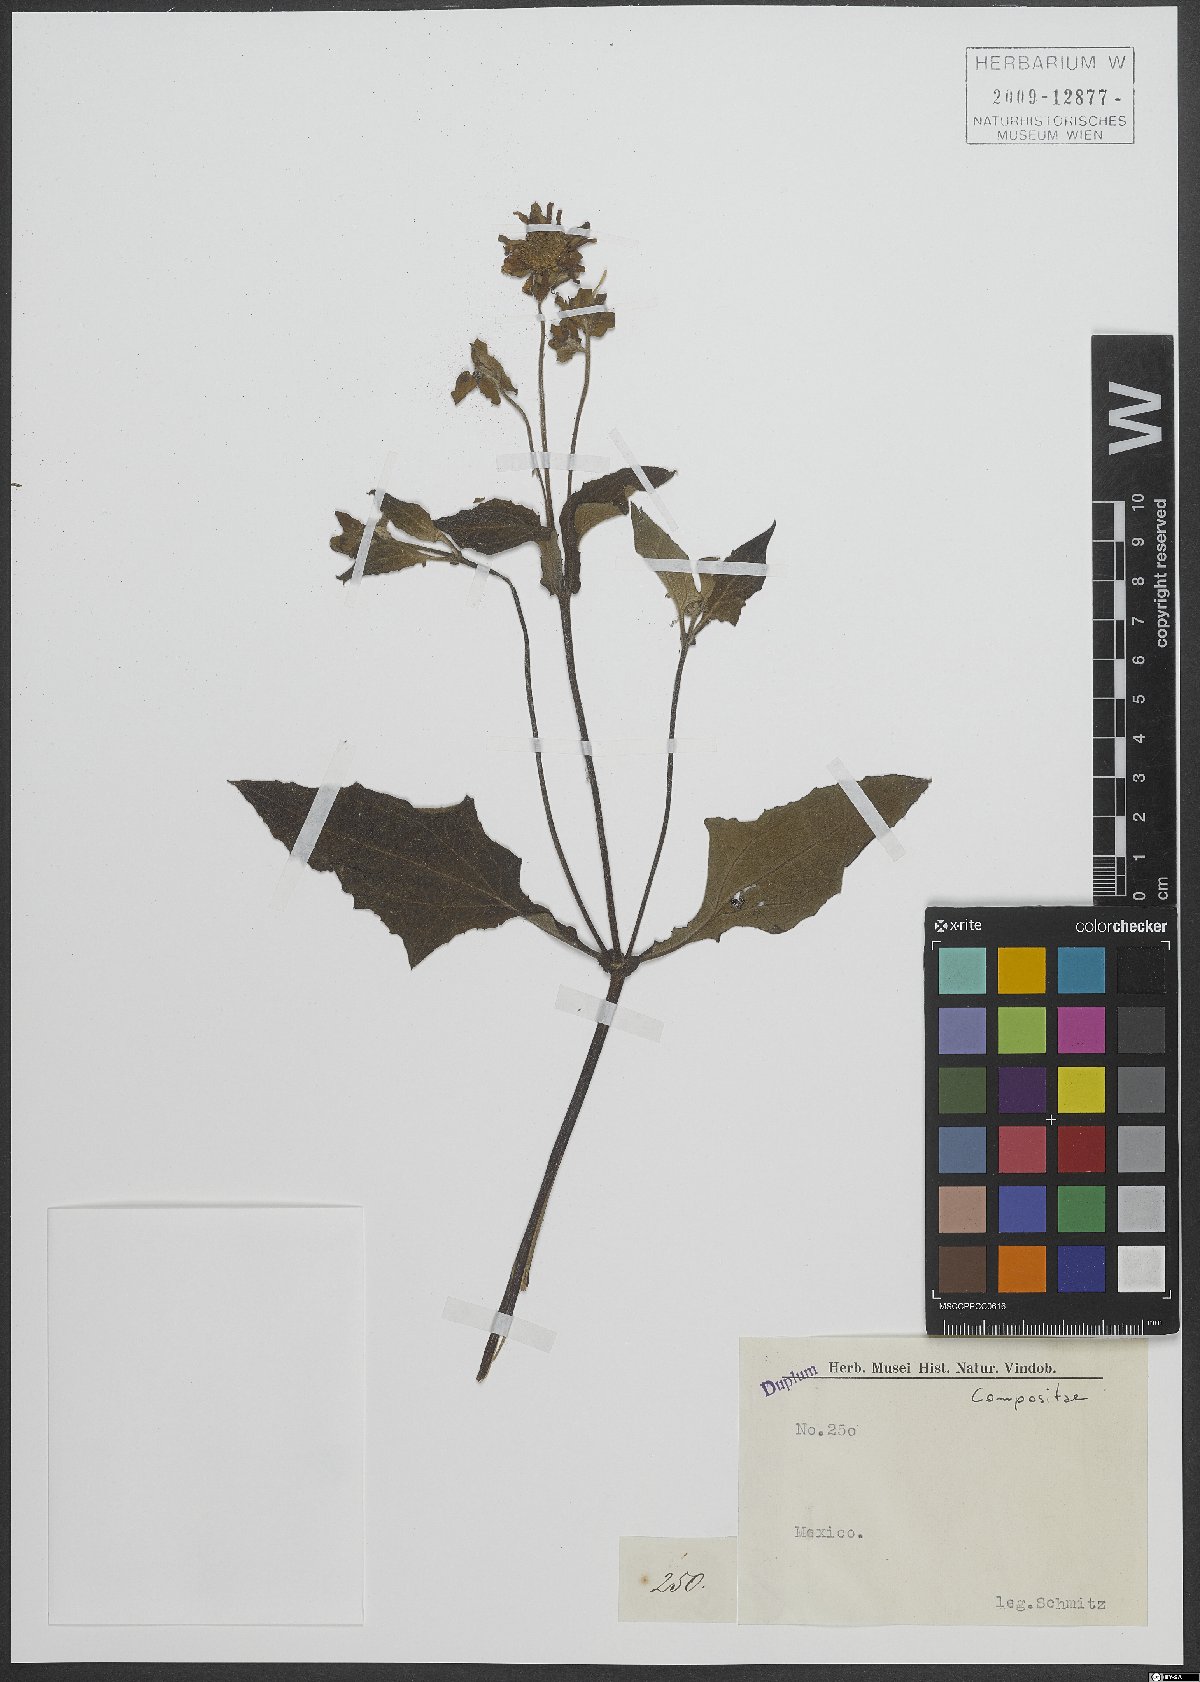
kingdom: Plantae
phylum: Tracheophyta
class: Magnoliopsida
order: Asterales
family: Asteraceae
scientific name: Asteraceae
